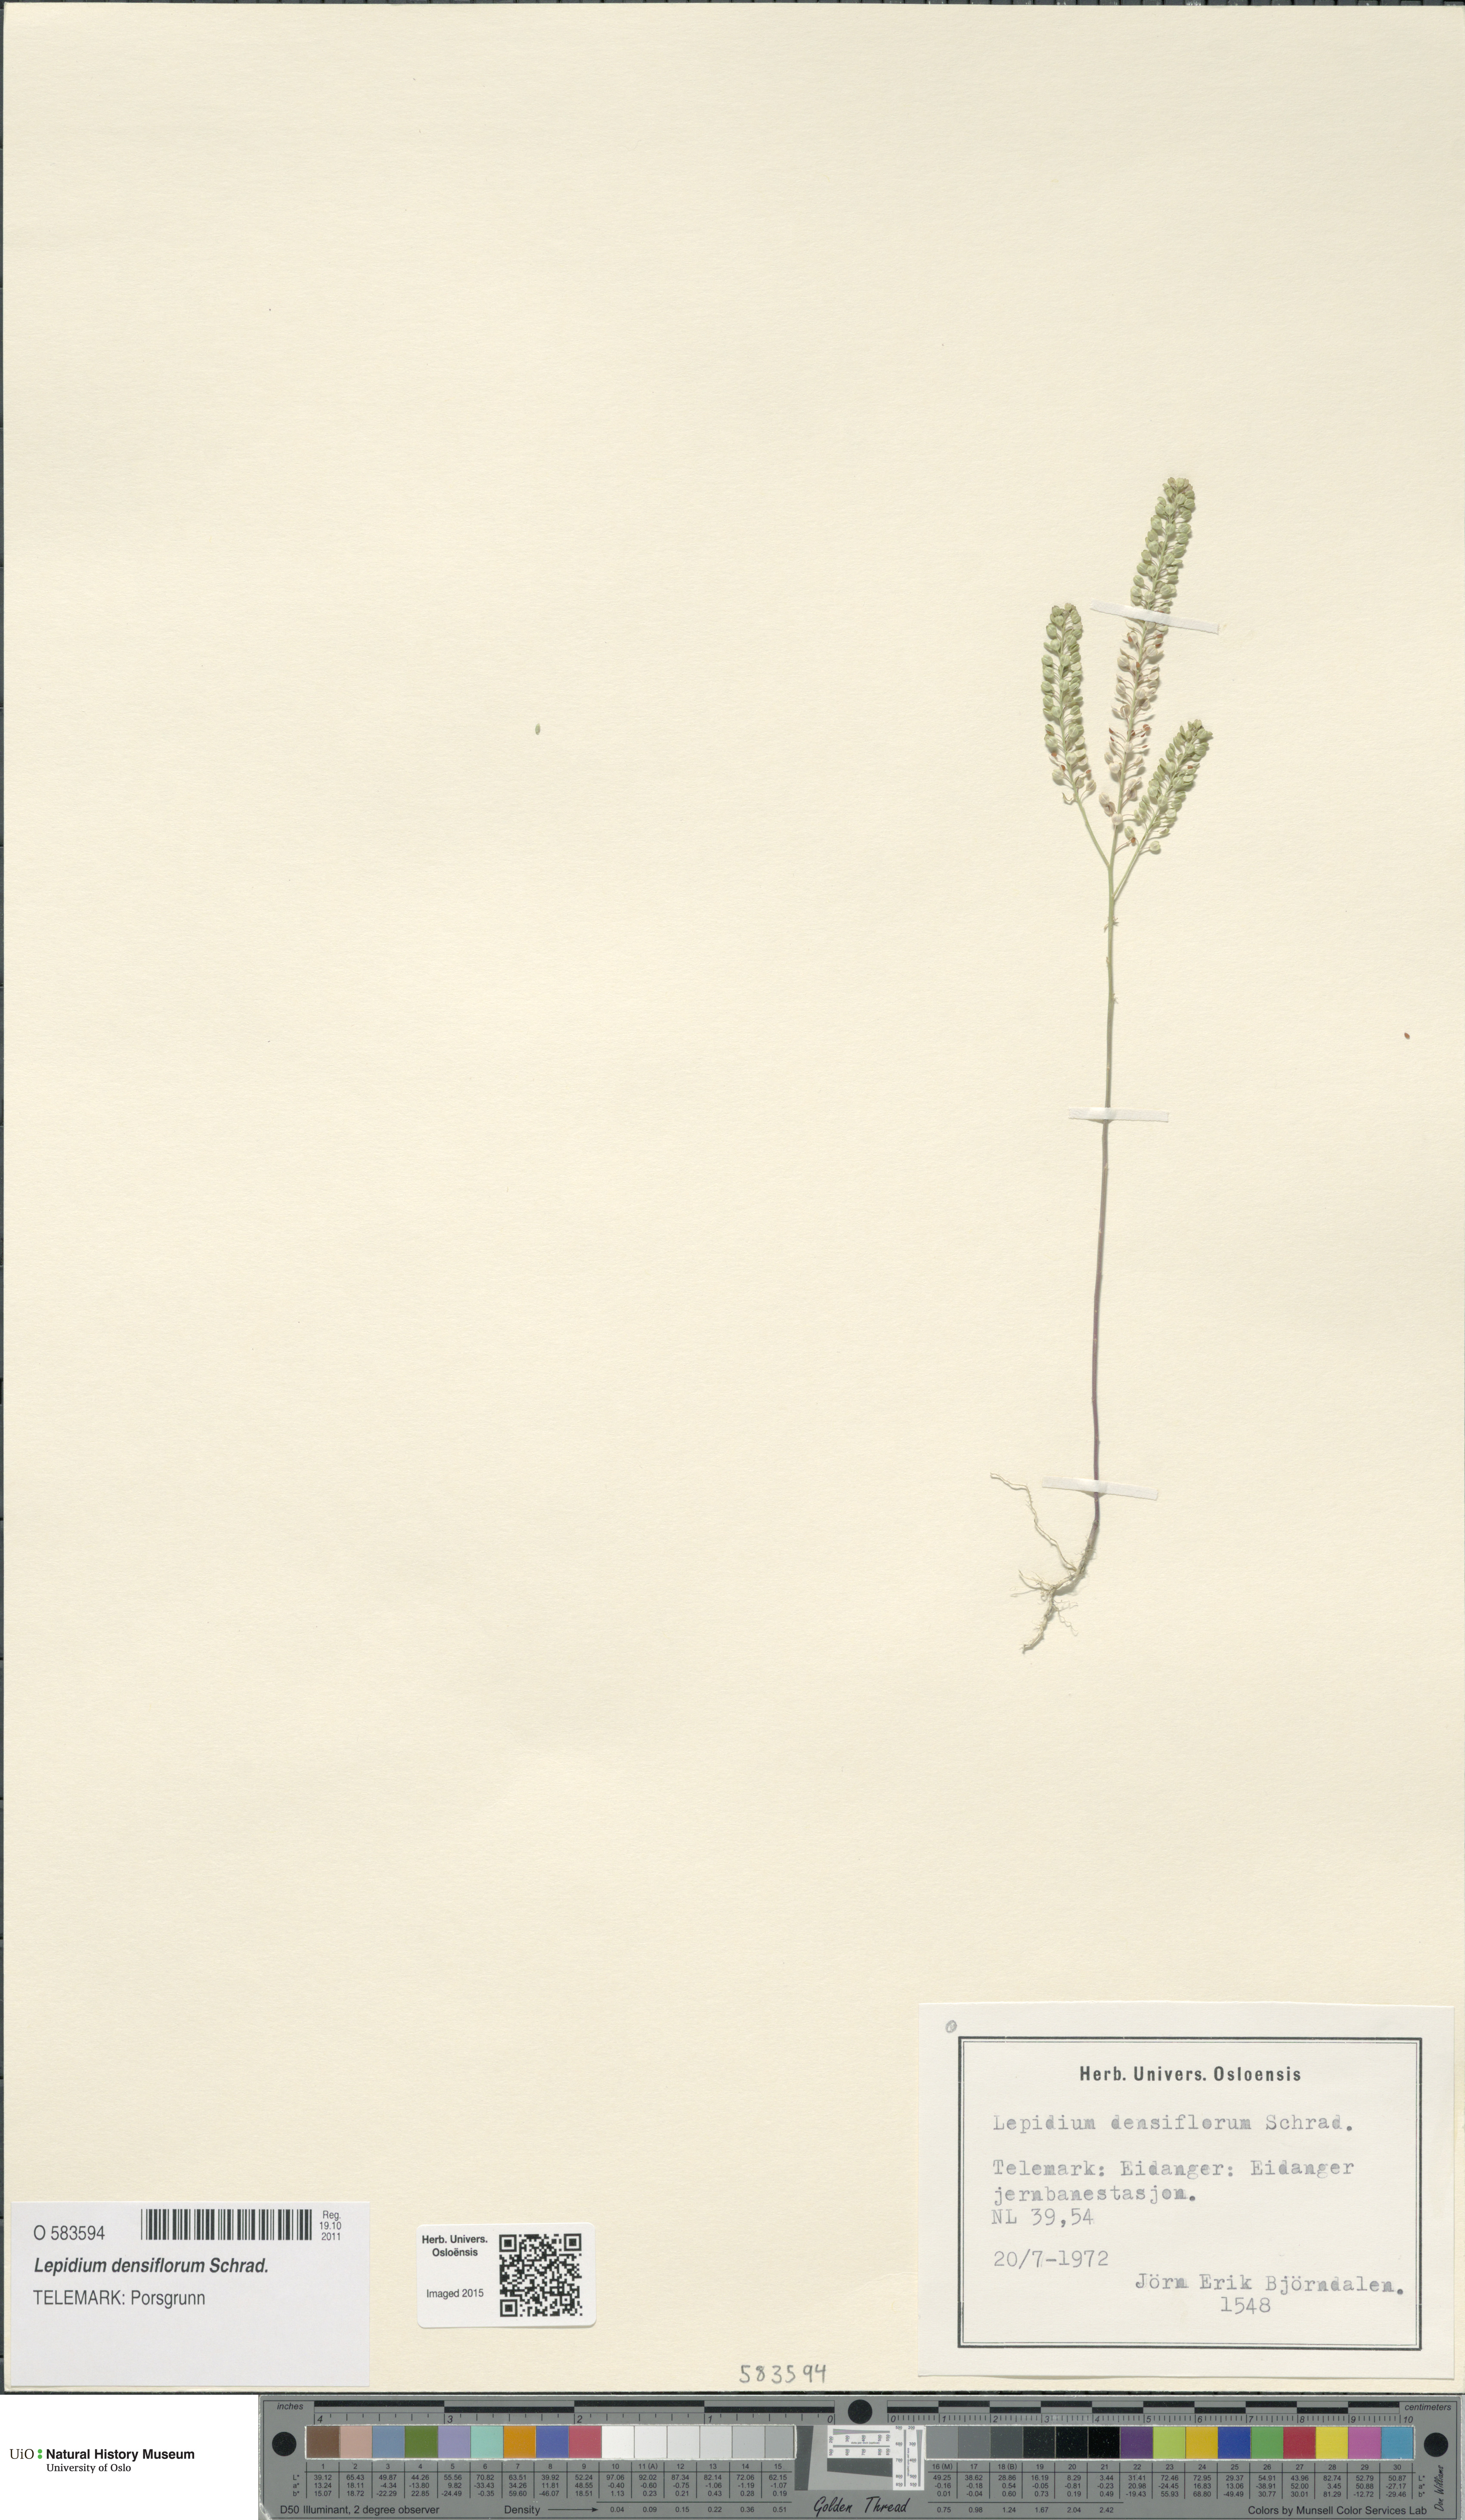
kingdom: Plantae
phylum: Tracheophyta
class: Magnoliopsida
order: Brassicales
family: Brassicaceae
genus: Lepidium
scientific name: Lepidium densiflorum
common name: Miner's pepperwort
